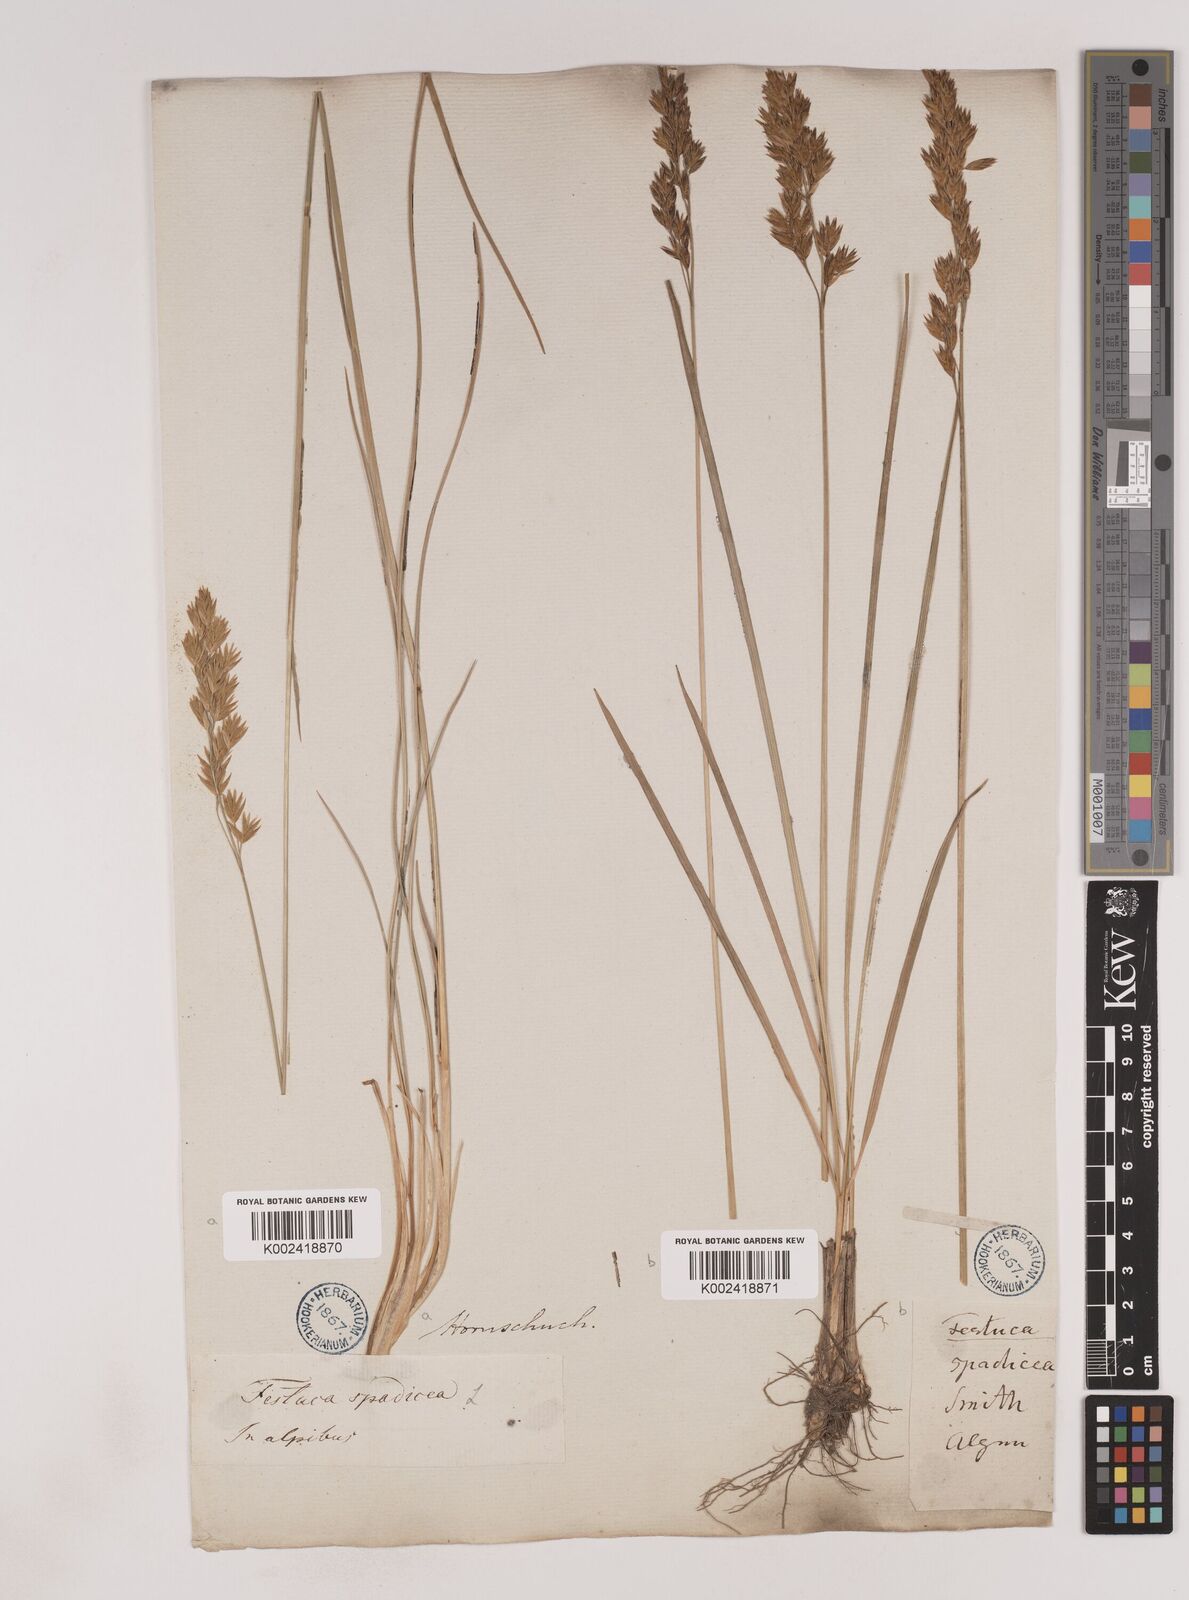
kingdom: Plantae
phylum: Tracheophyta
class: Liliopsida
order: Poales
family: Poaceae
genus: Patzkea
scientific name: Patzkea paniculata
